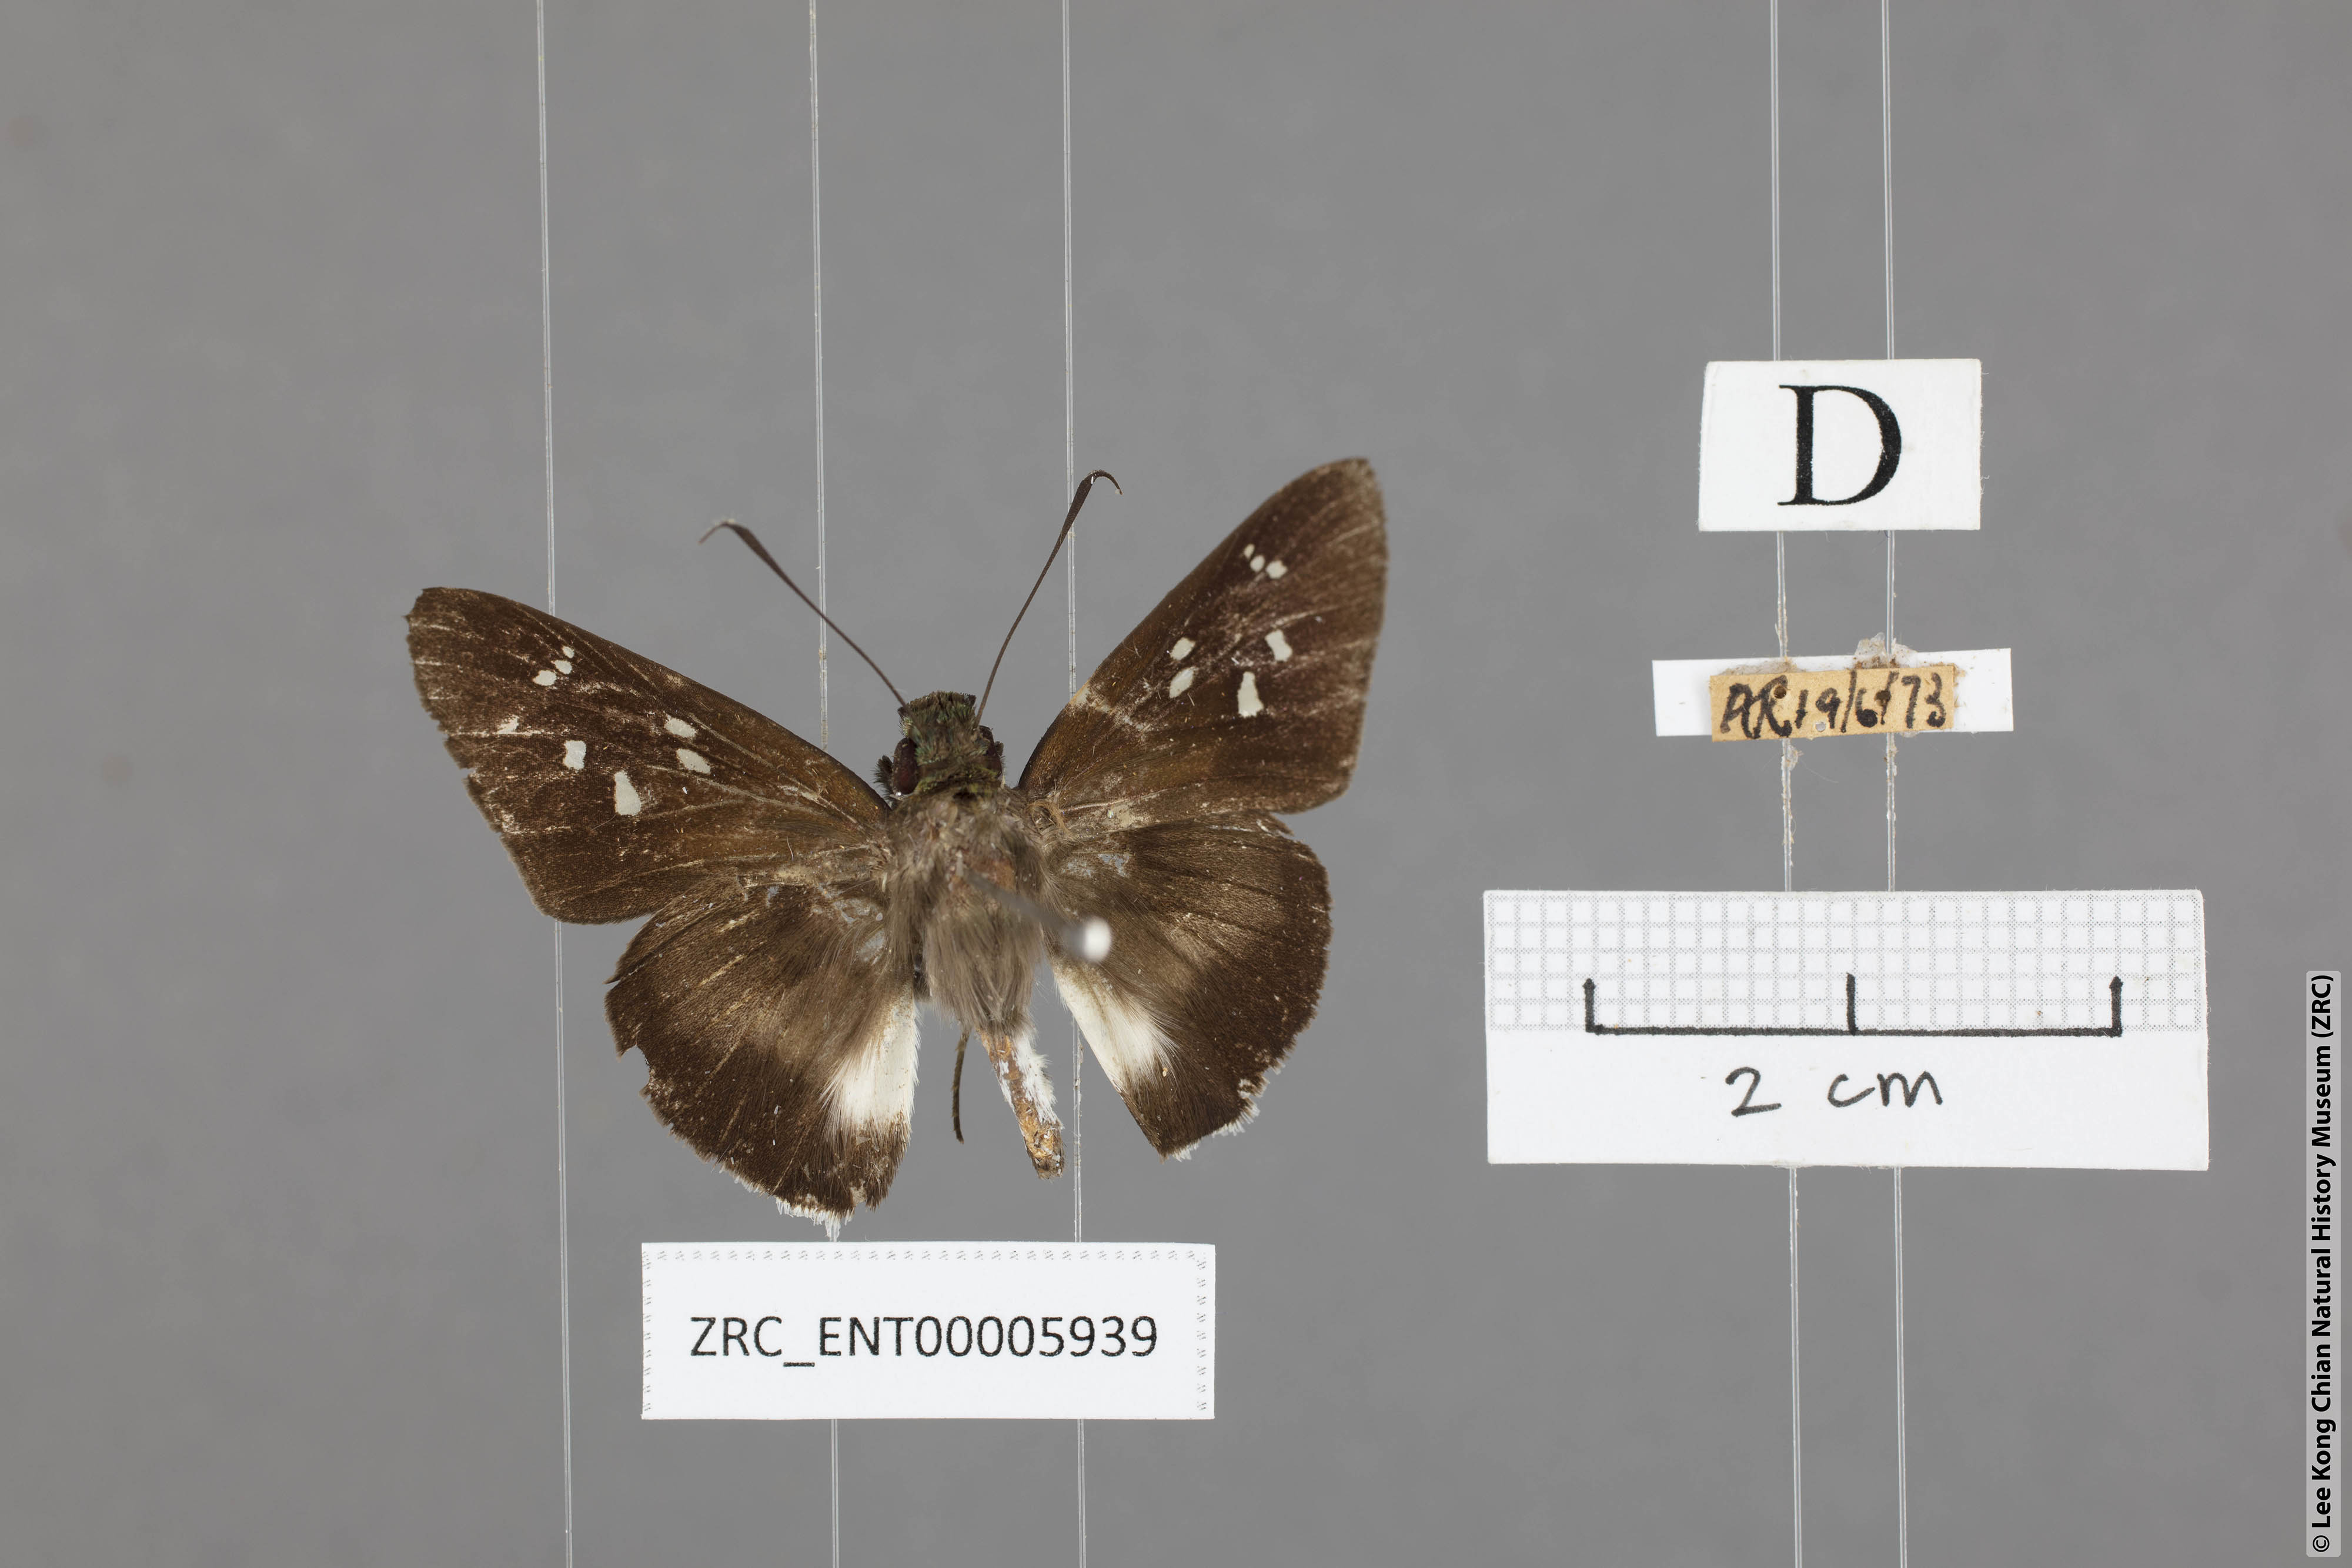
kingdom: Animalia
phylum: Arthropoda
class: Insecta
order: Lepidoptera
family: Hesperiidae
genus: Acerbas
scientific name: Acerbas martini
